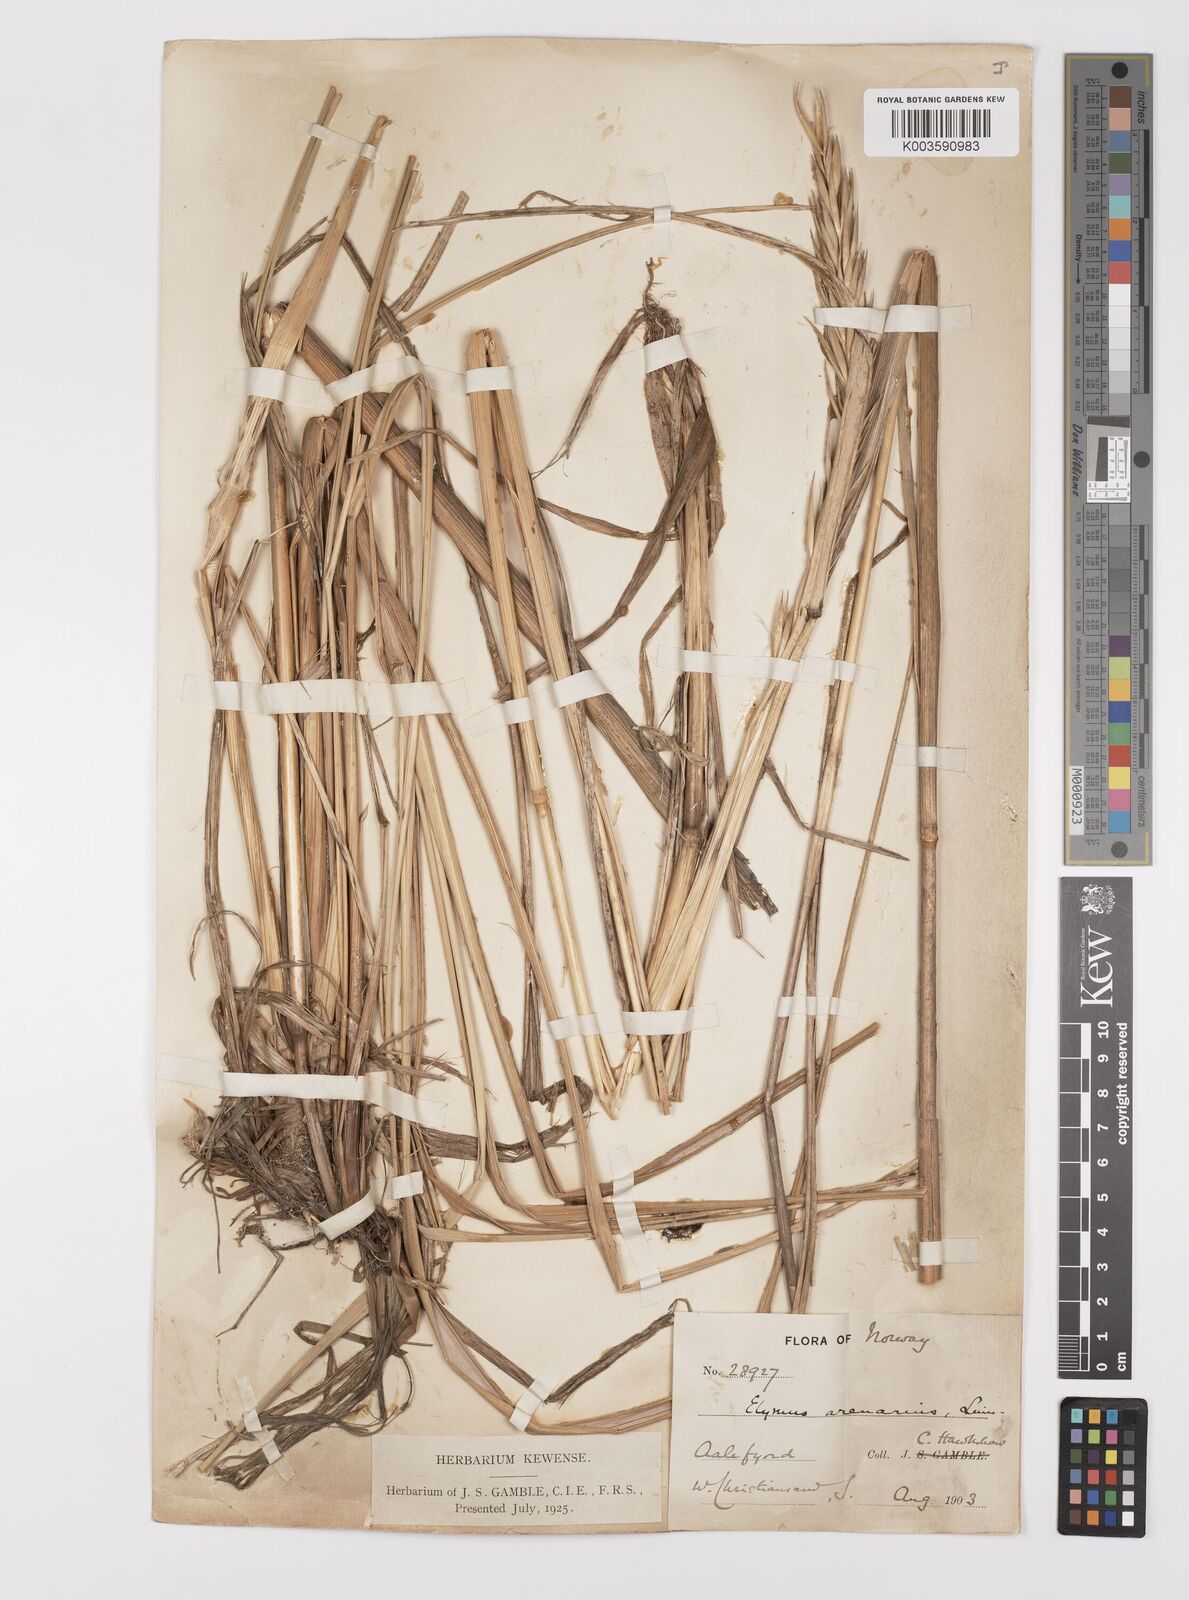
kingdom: Plantae
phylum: Tracheophyta
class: Liliopsida
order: Poales
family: Poaceae
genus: Leymus
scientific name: Leymus arenarius
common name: Lyme-grass
